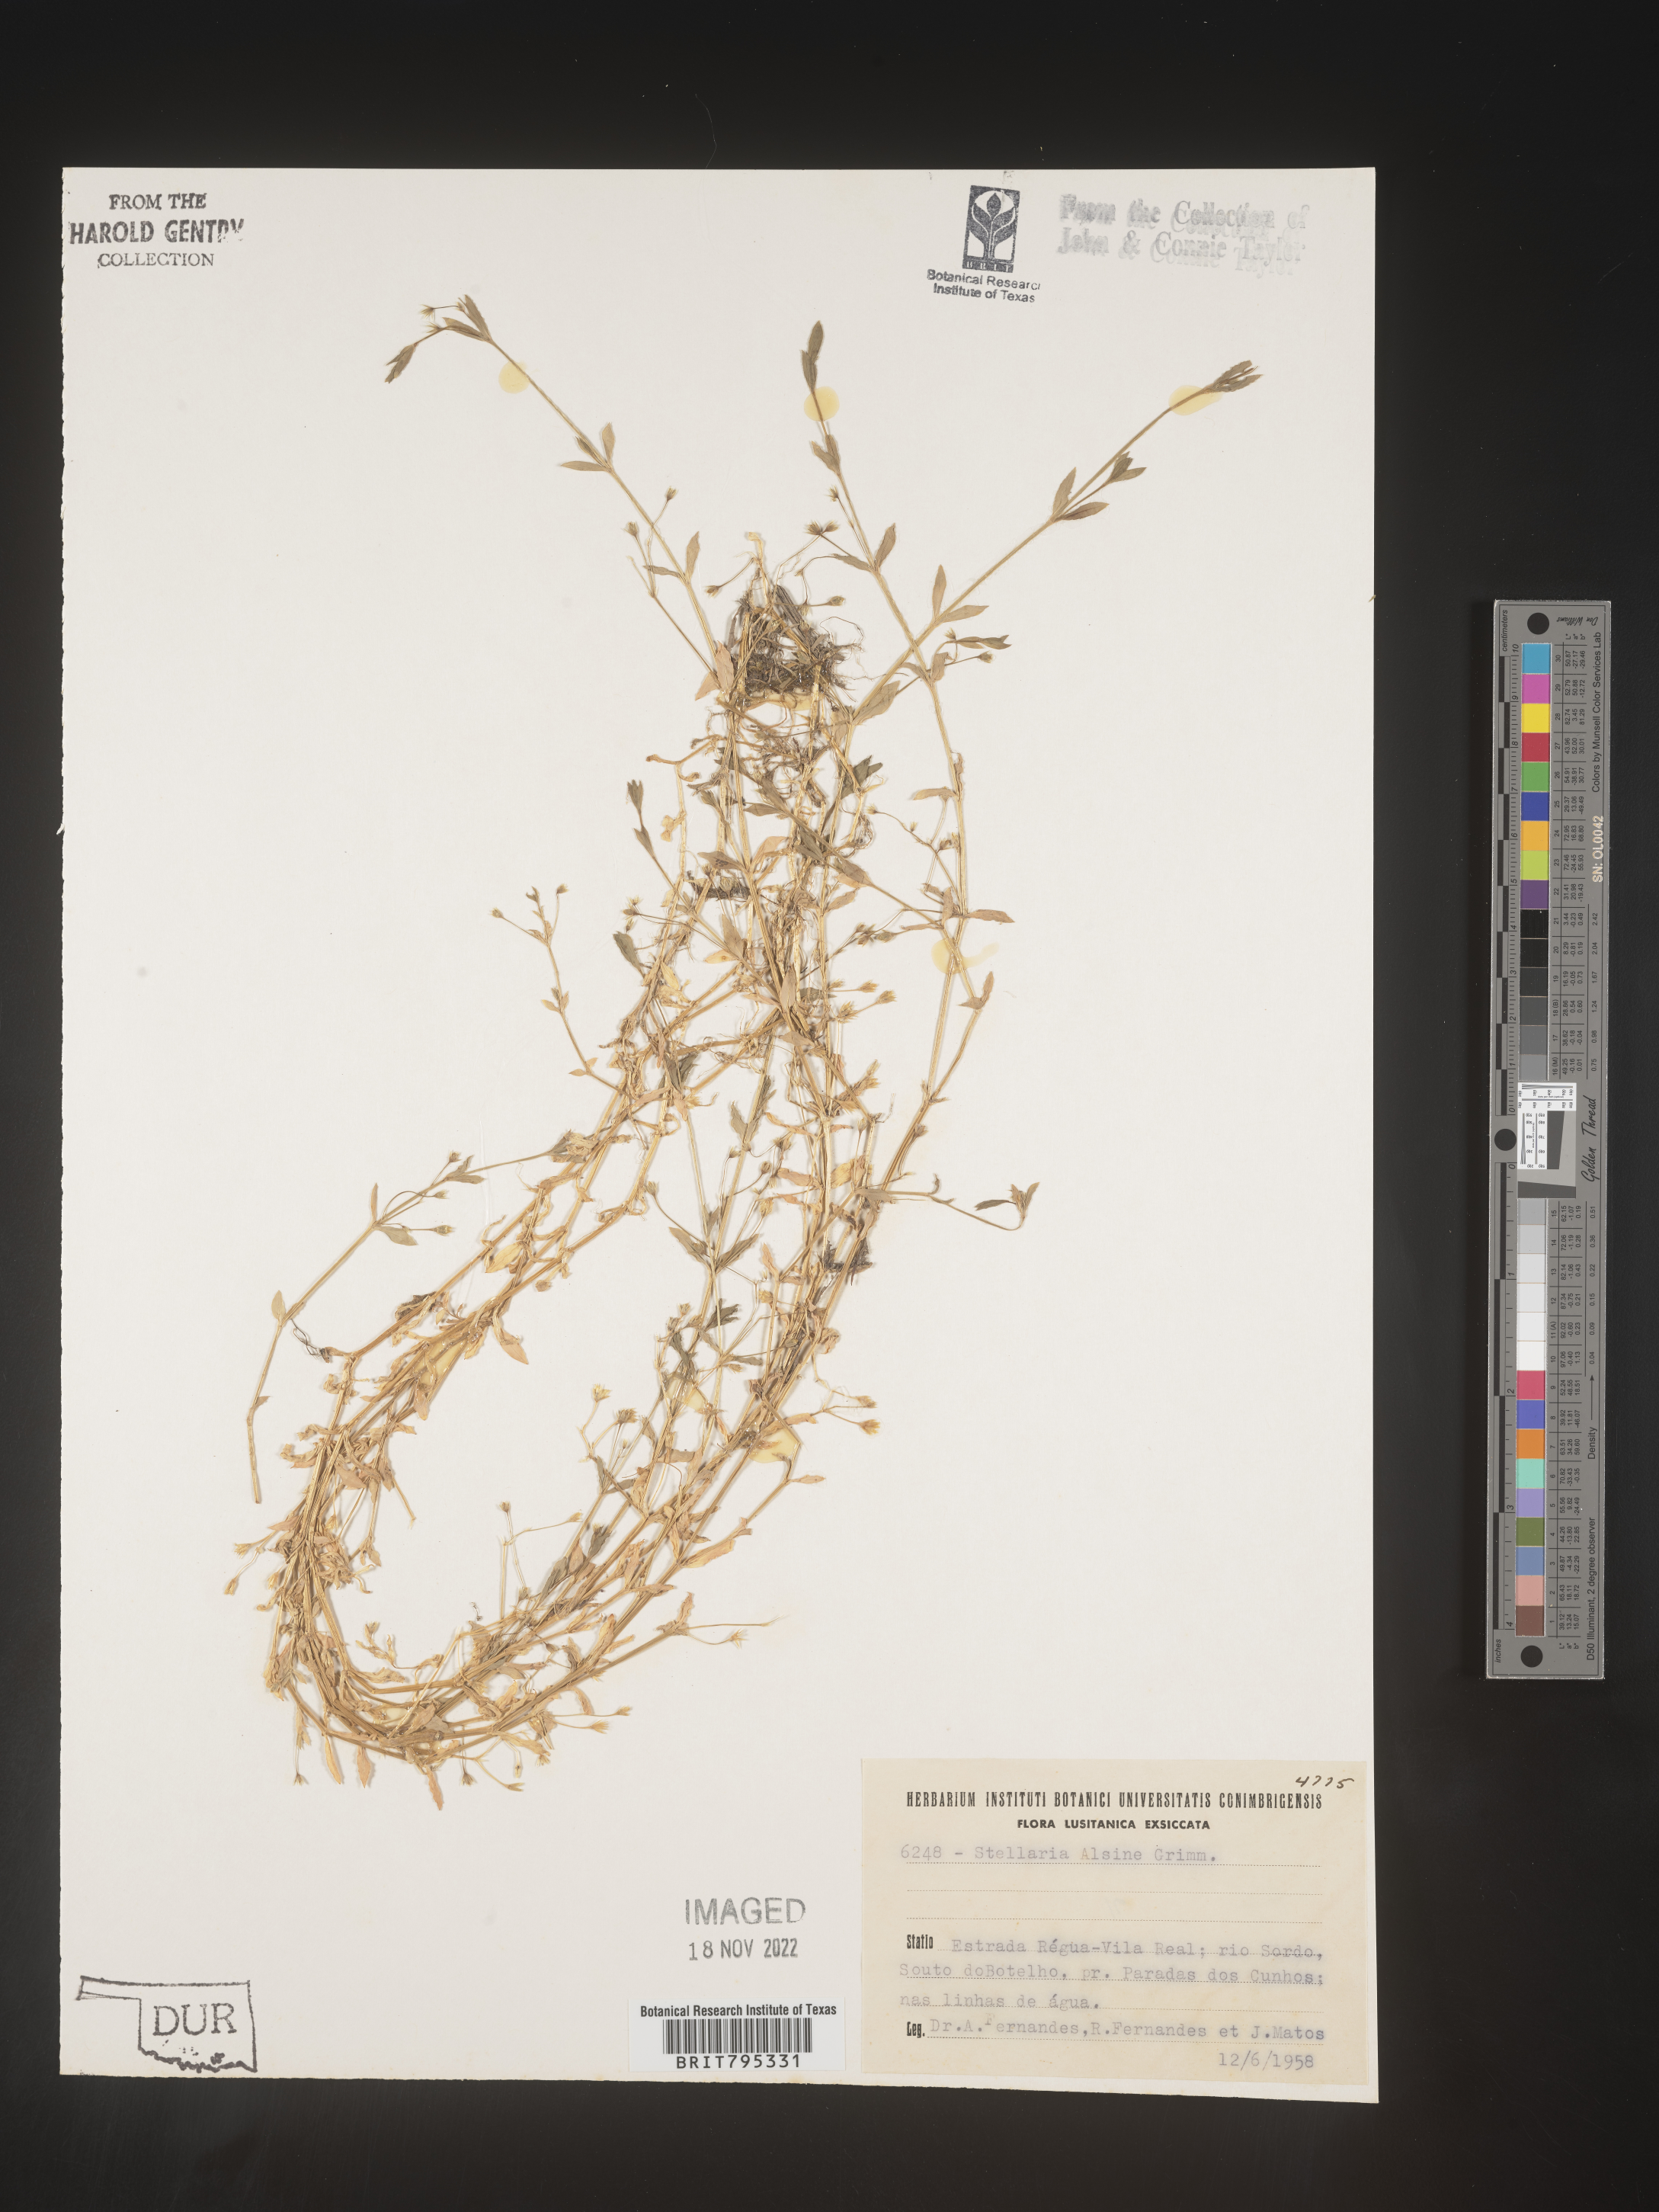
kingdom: Plantae
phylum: Tracheophyta
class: Magnoliopsida
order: Caryophyllales
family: Caryophyllaceae
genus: Stellaria
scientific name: Stellaria
